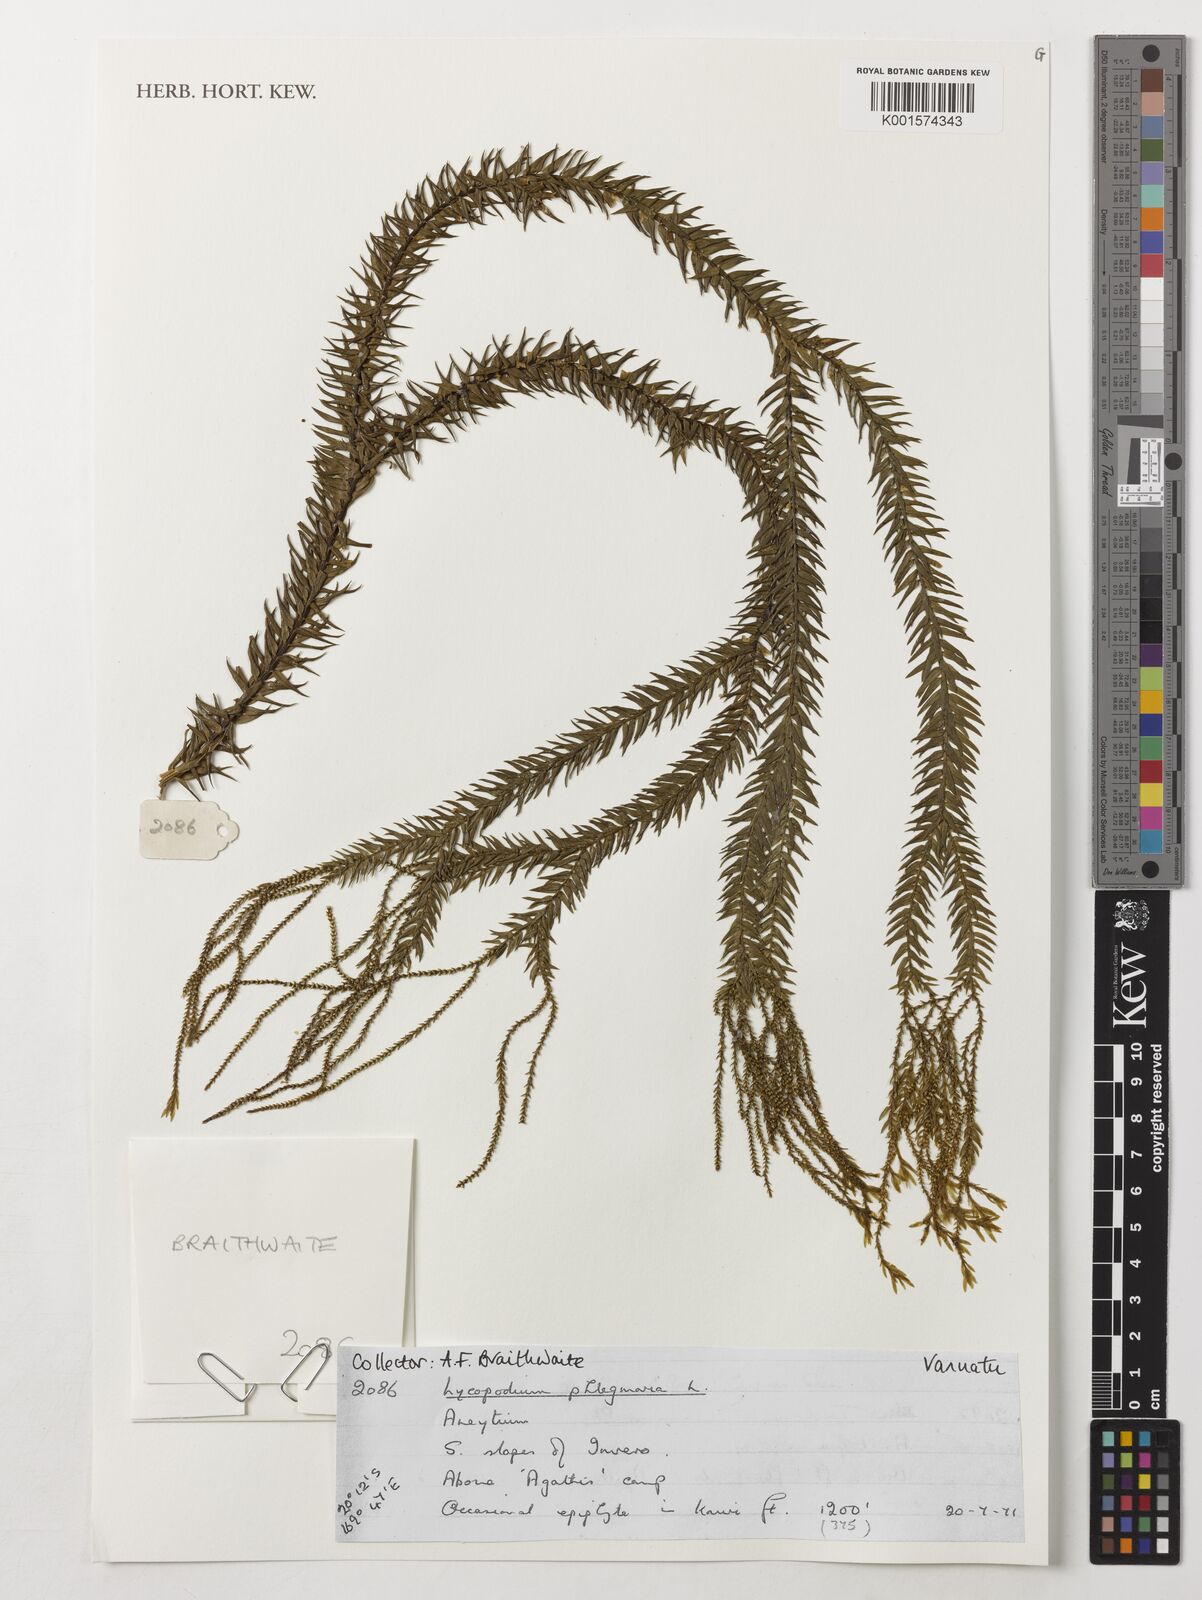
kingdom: Plantae
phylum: Tracheophyta
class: Lycopodiopsida
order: Lycopodiales
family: Lycopodiaceae
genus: Phlegmariurus
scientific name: Phlegmariurus phlegmaria
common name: Coarse tassel-fern
